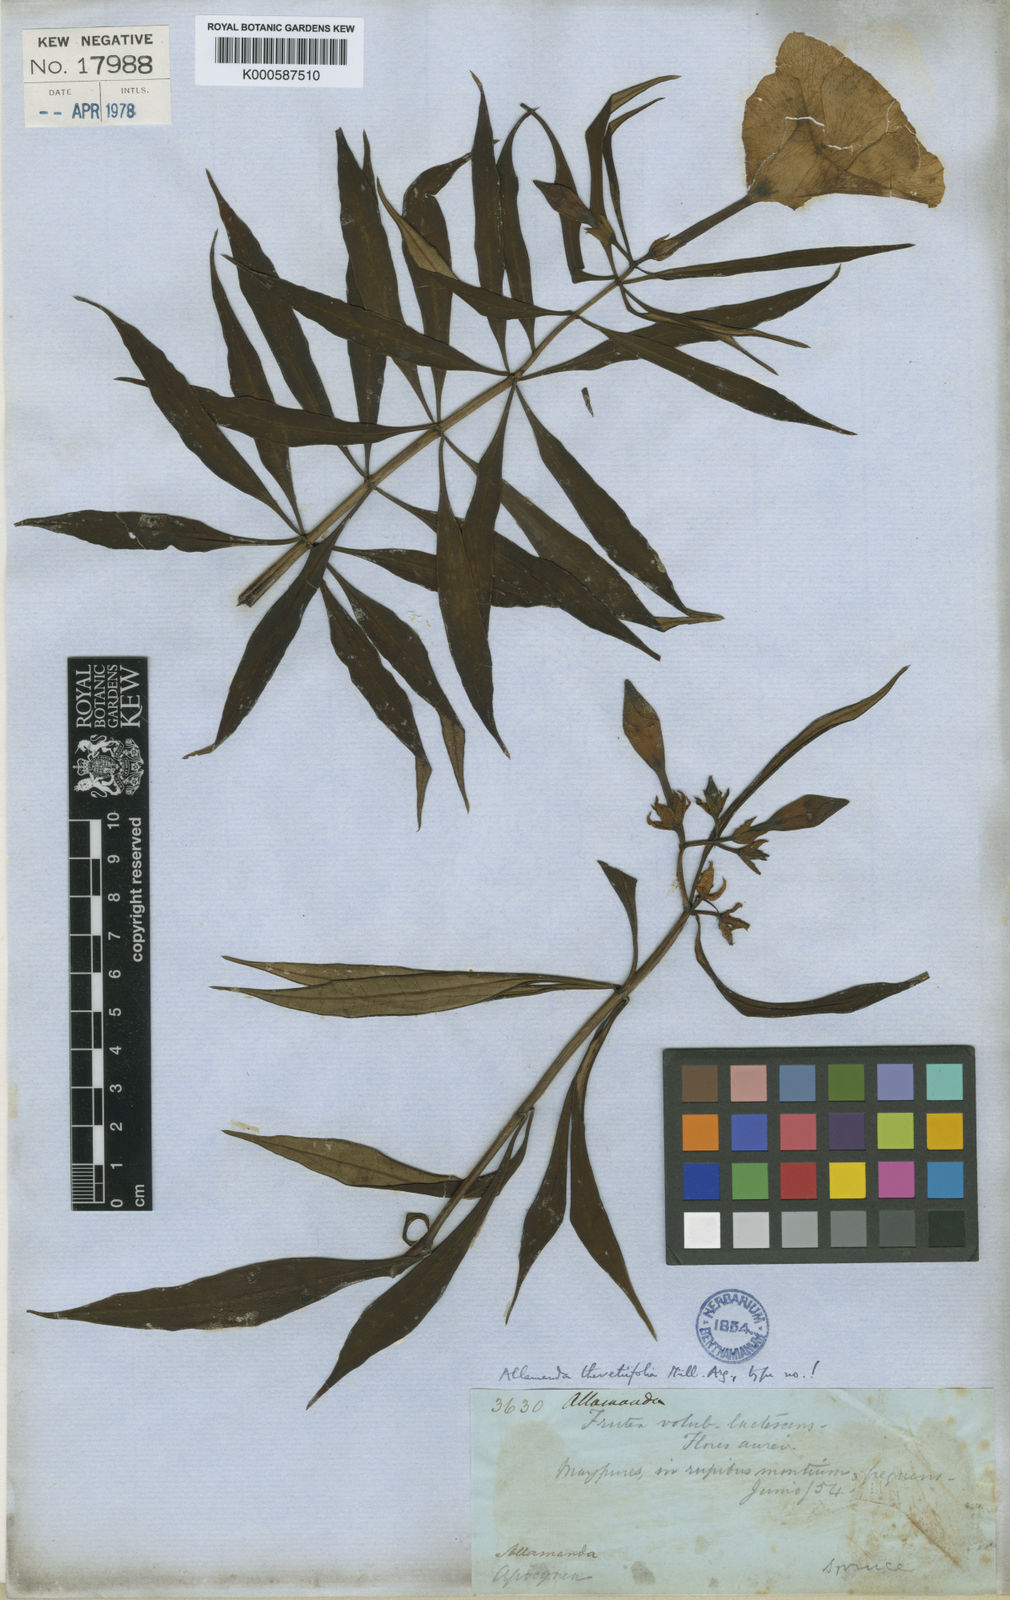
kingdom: Plantae
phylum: Tracheophyta
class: Magnoliopsida
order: Gentianales
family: Apocynaceae
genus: Allamanda
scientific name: Allamanda
